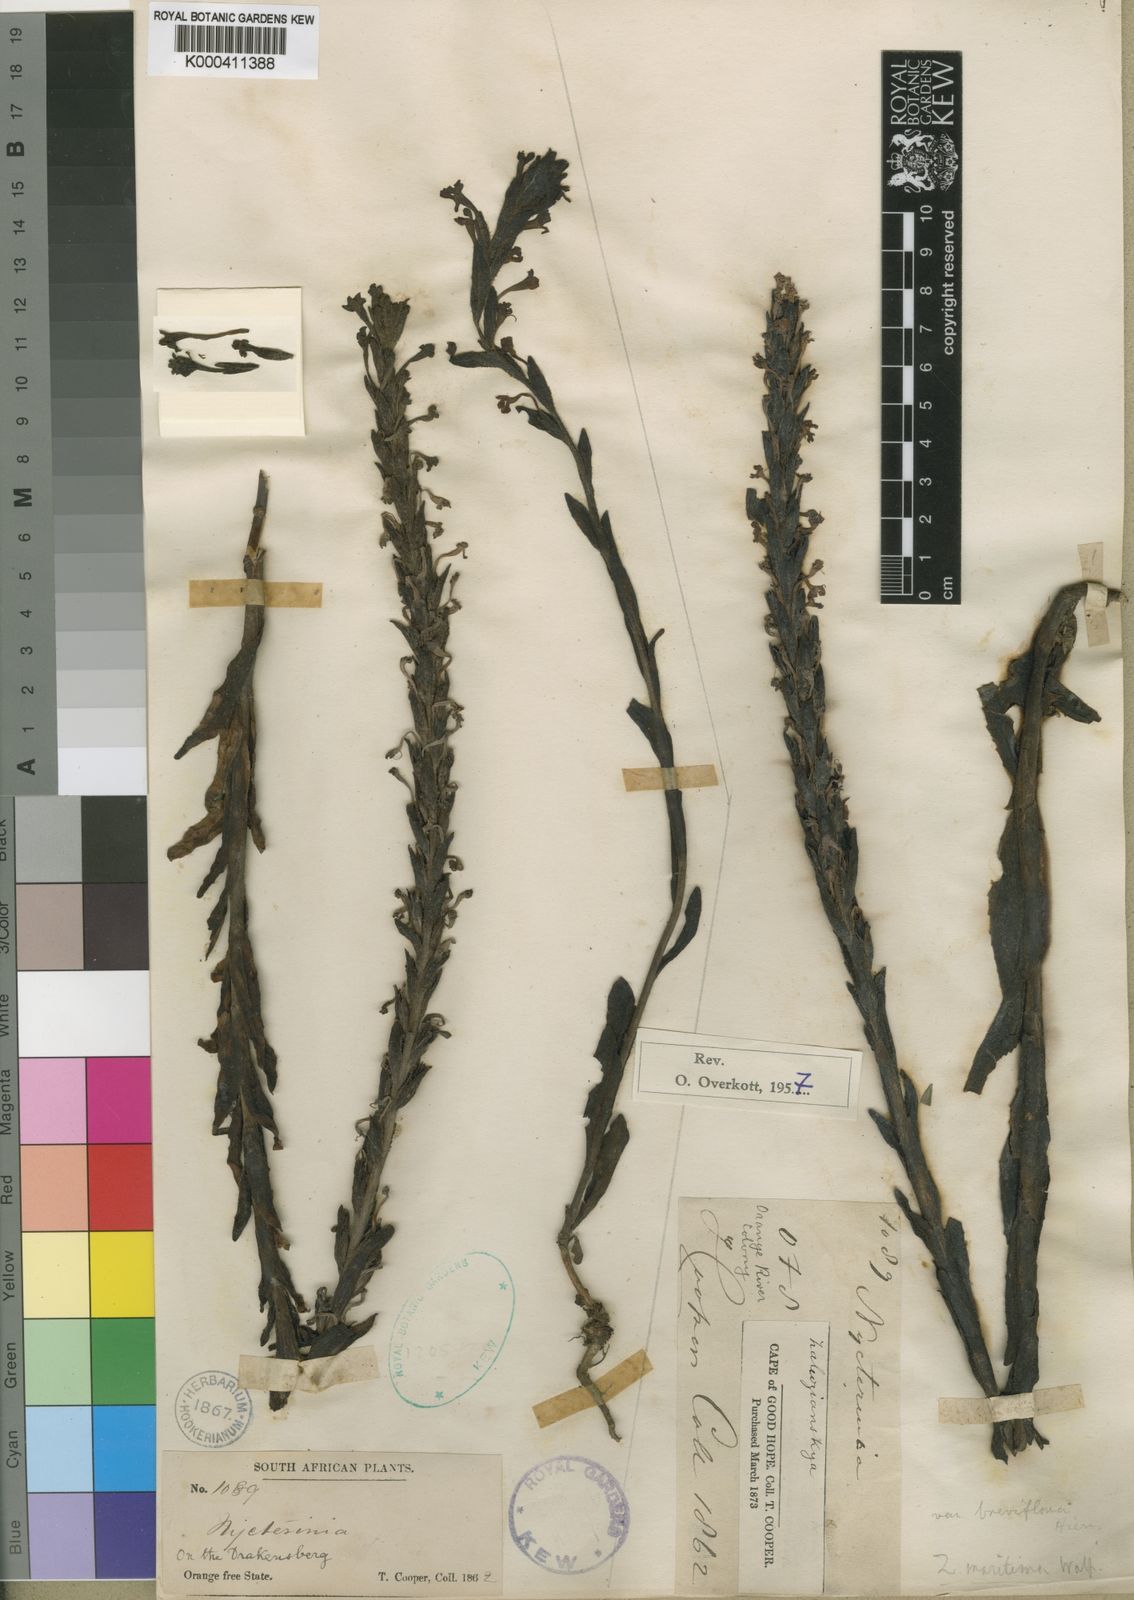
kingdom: Plantae
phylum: Tracheophyta
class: Magnoliopsida
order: Lamiales
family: Scrophulariaceae
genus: Zaluzianskya
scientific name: Zaluzianskya microsiphon
